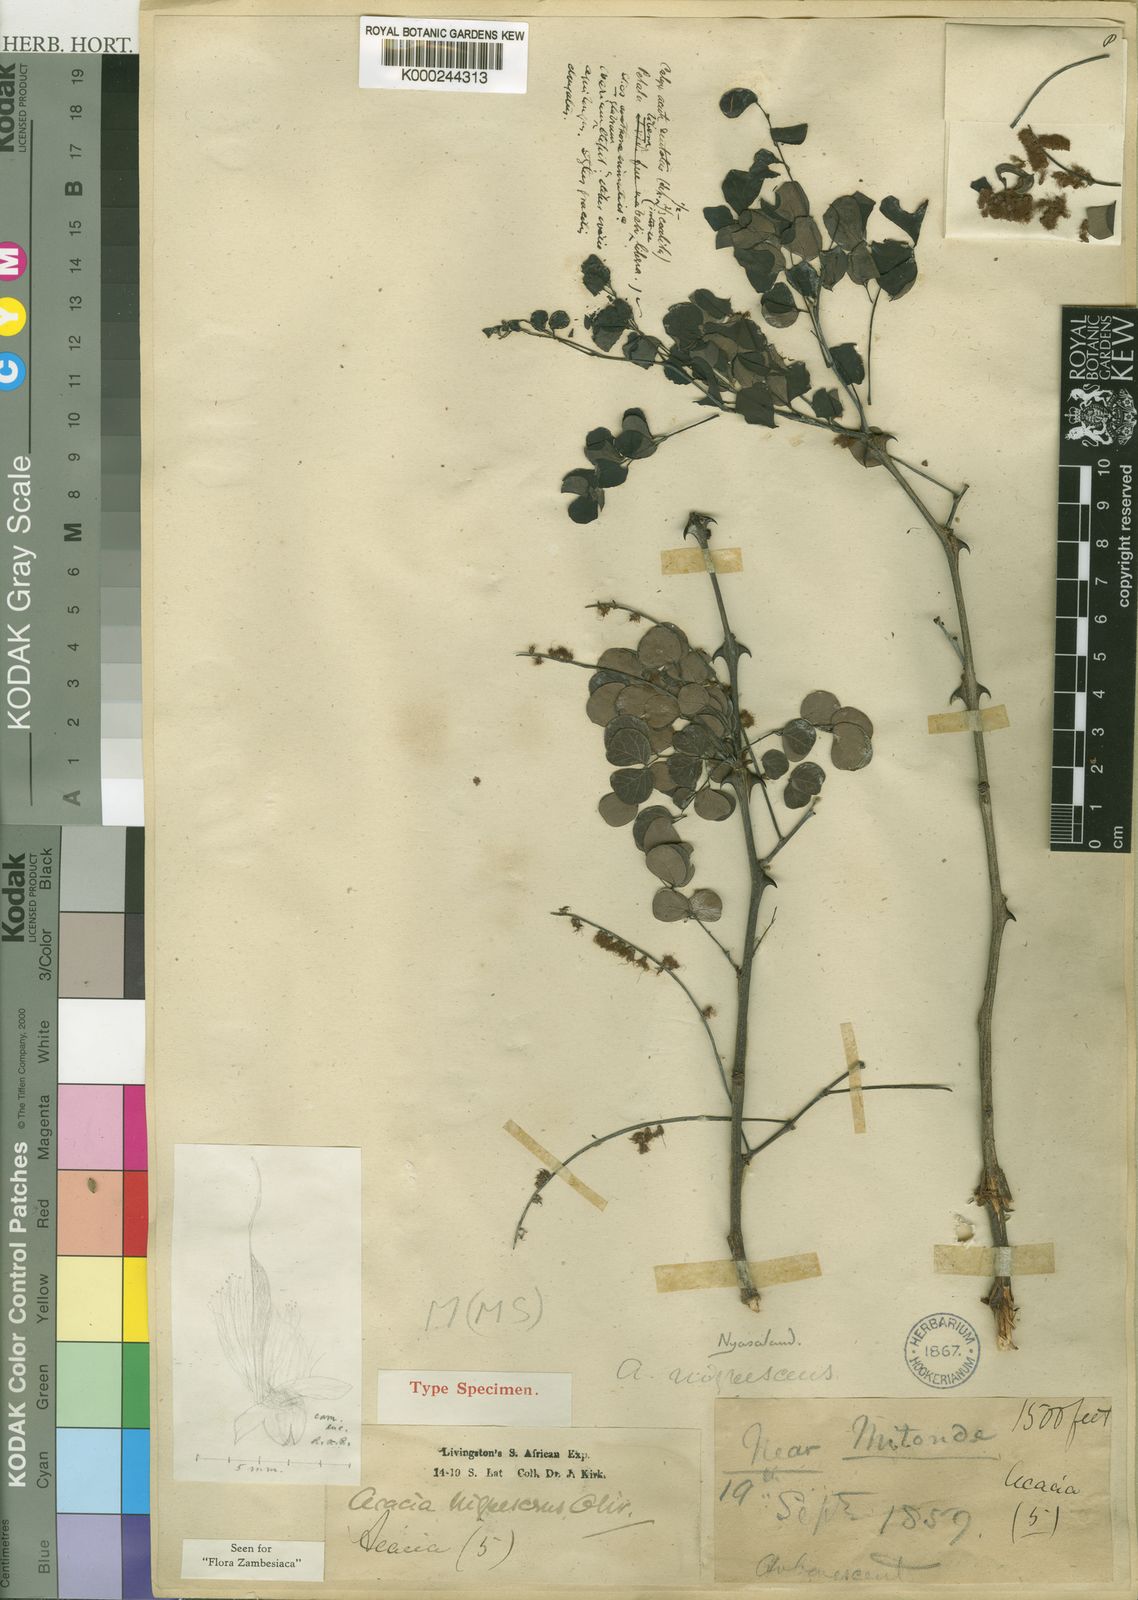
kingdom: Plantae
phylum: Tracheophyta
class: Magnoliopsida
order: Fabales
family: Fabaceae
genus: Senegalia
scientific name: Senegalia nigrescens
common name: Knobthorn
